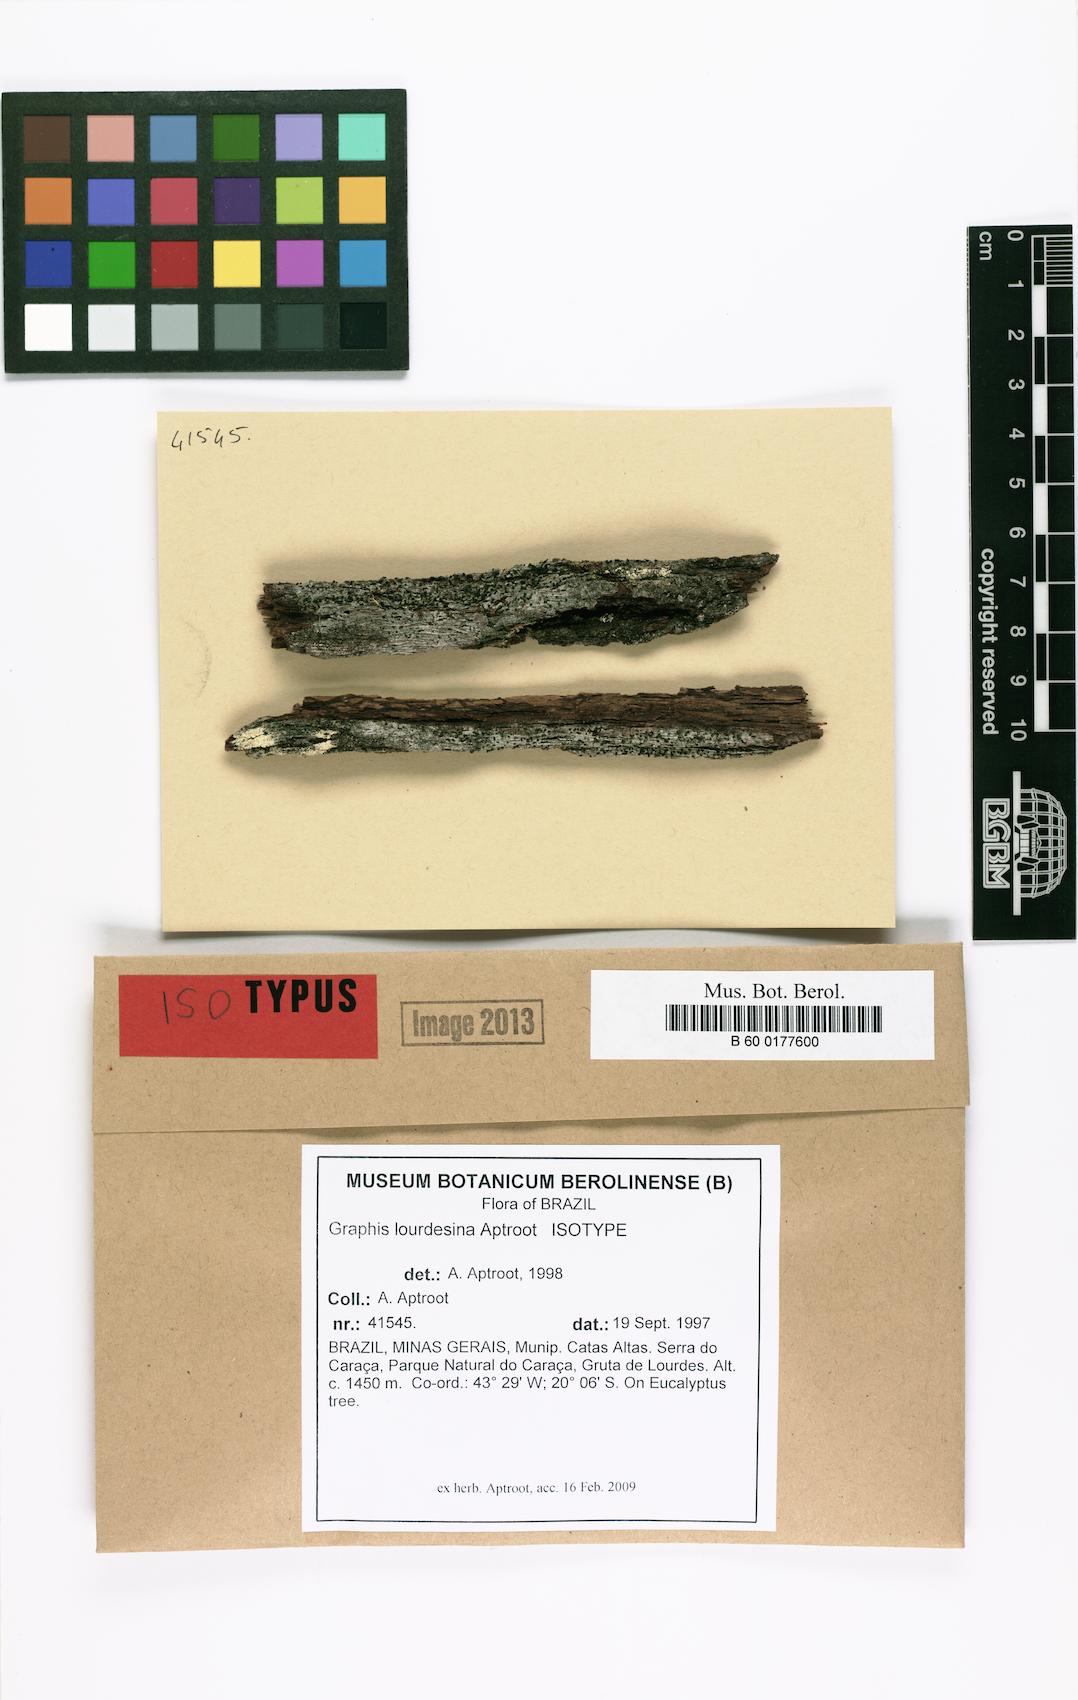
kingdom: Fungi
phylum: Ascomycota
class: Lecanoromycetes
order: Ostropales
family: Graphidaceae
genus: Allographa
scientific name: Allographa lourdesina
